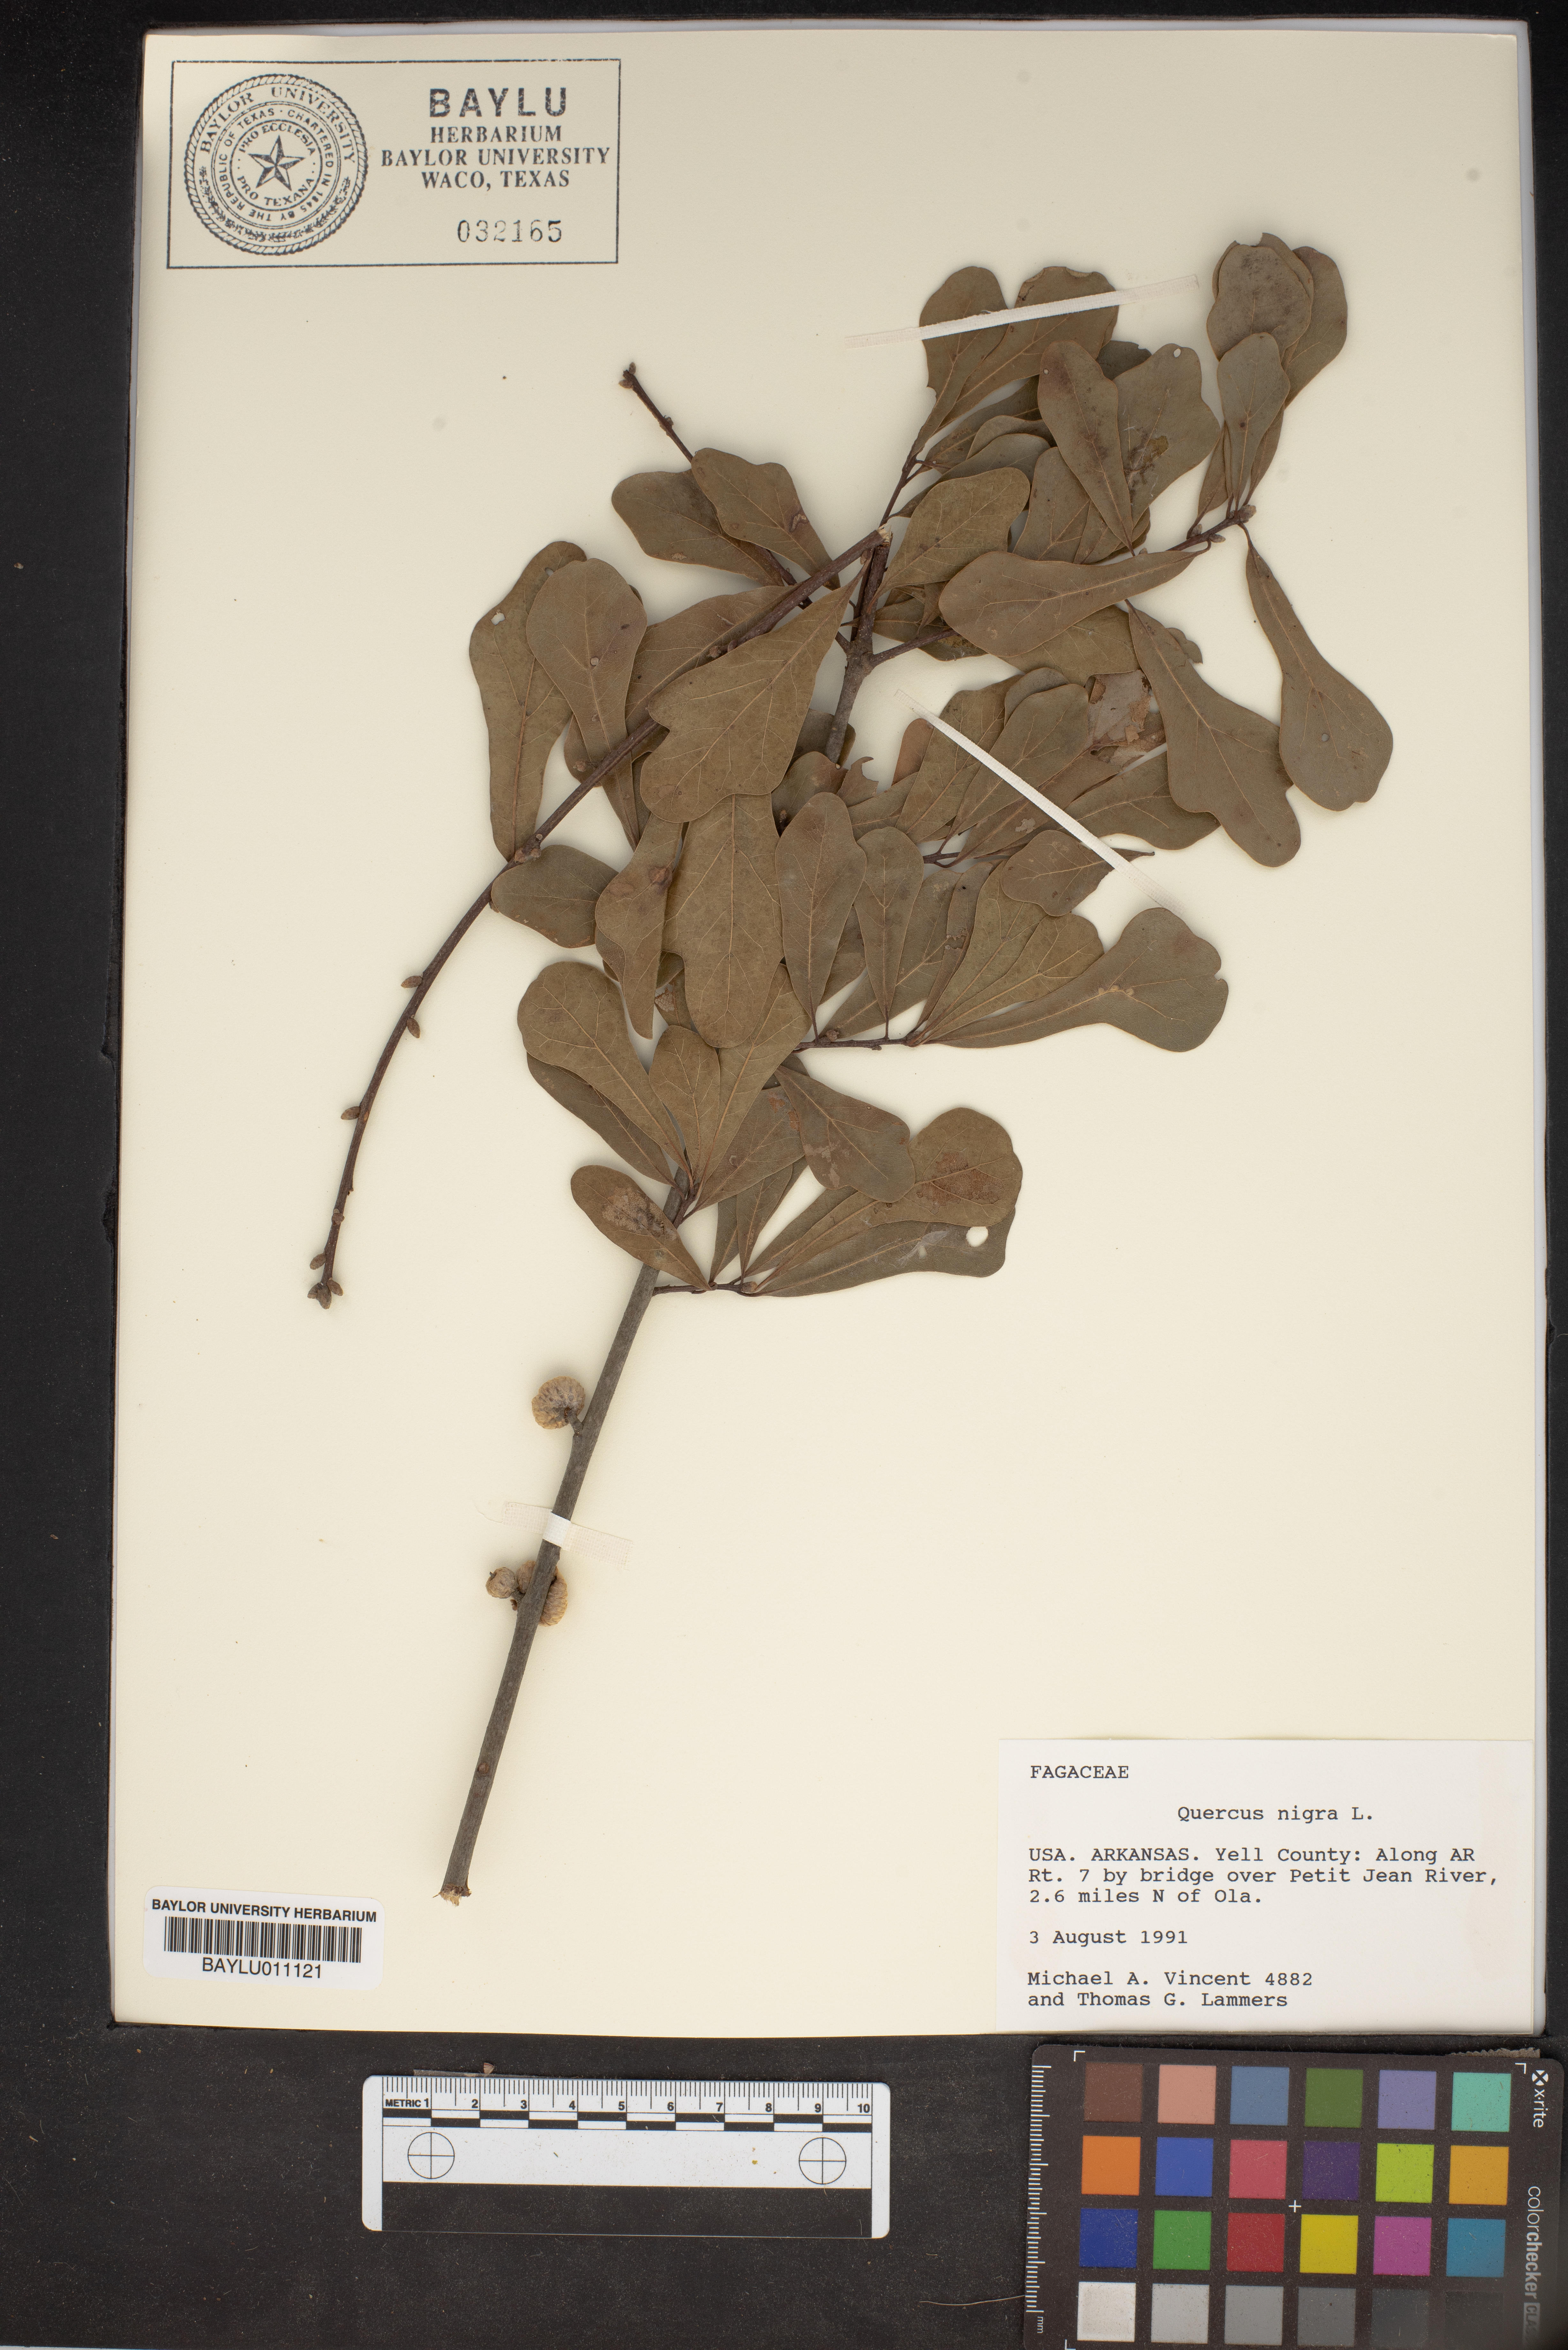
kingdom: Plantae
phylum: Tracheophyta
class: Magnoliopsida
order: Fagales
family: Fagaceae
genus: Quercus
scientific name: Quercus nigra
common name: Water oak
